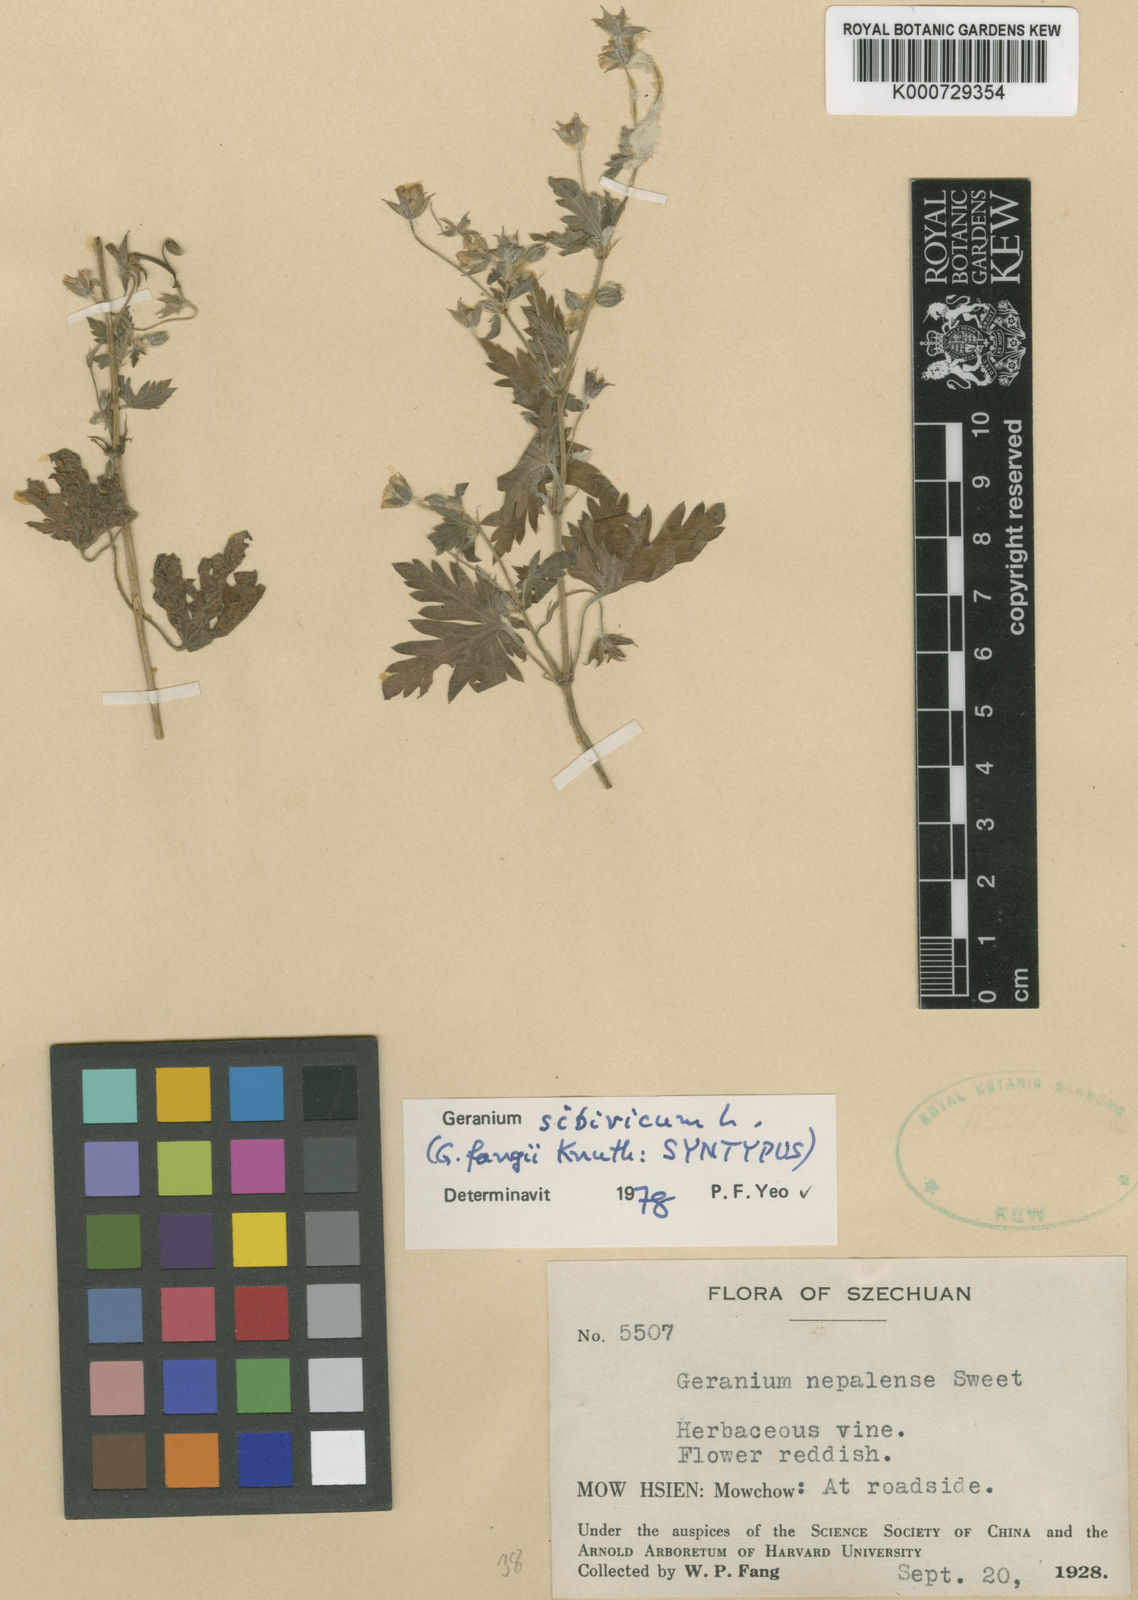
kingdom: Plantae
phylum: Tracheophyta
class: Magnoliopsida
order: Geraniales
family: Geraniaceae
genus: Geranium
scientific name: Geranium sibiricum
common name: Siberian crane's-bill
